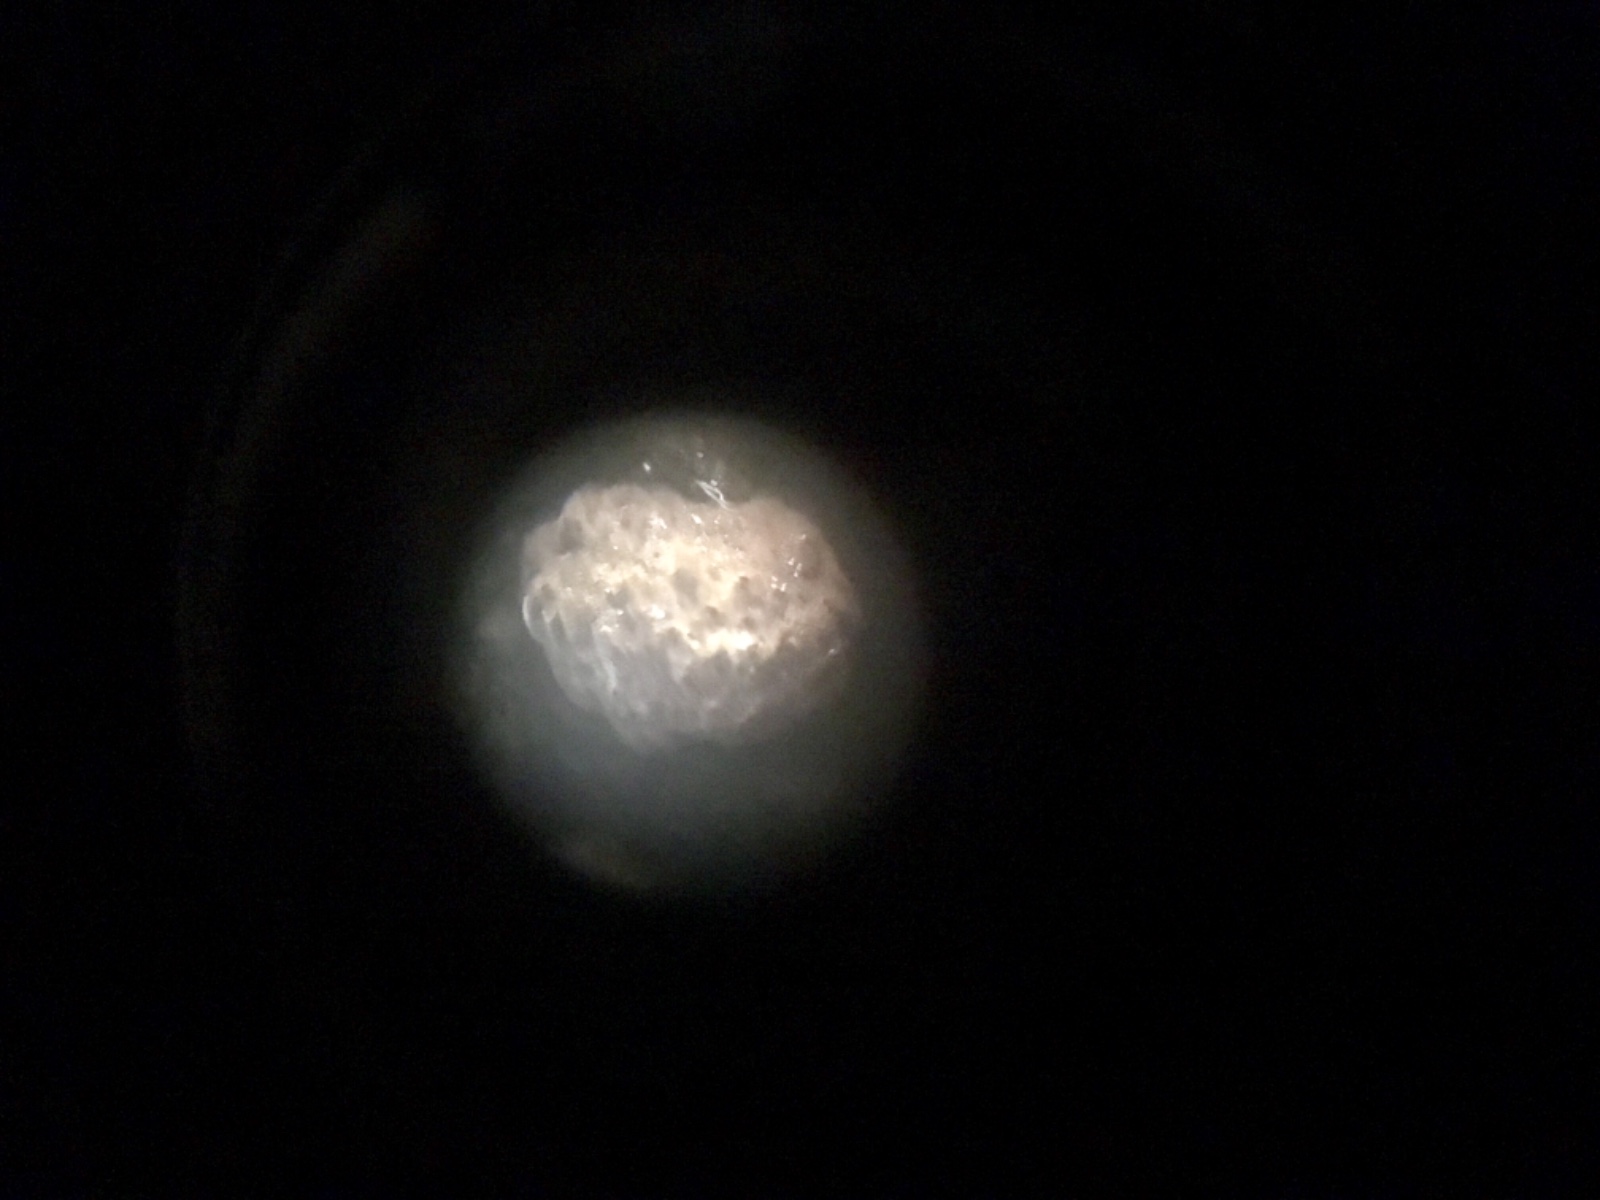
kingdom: Fungi
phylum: Ascomycota
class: Sordariomycetes
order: Xylariales
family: Hypoxylaceae
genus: Hypoxylon
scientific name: Hypoxylon
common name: kulbær
